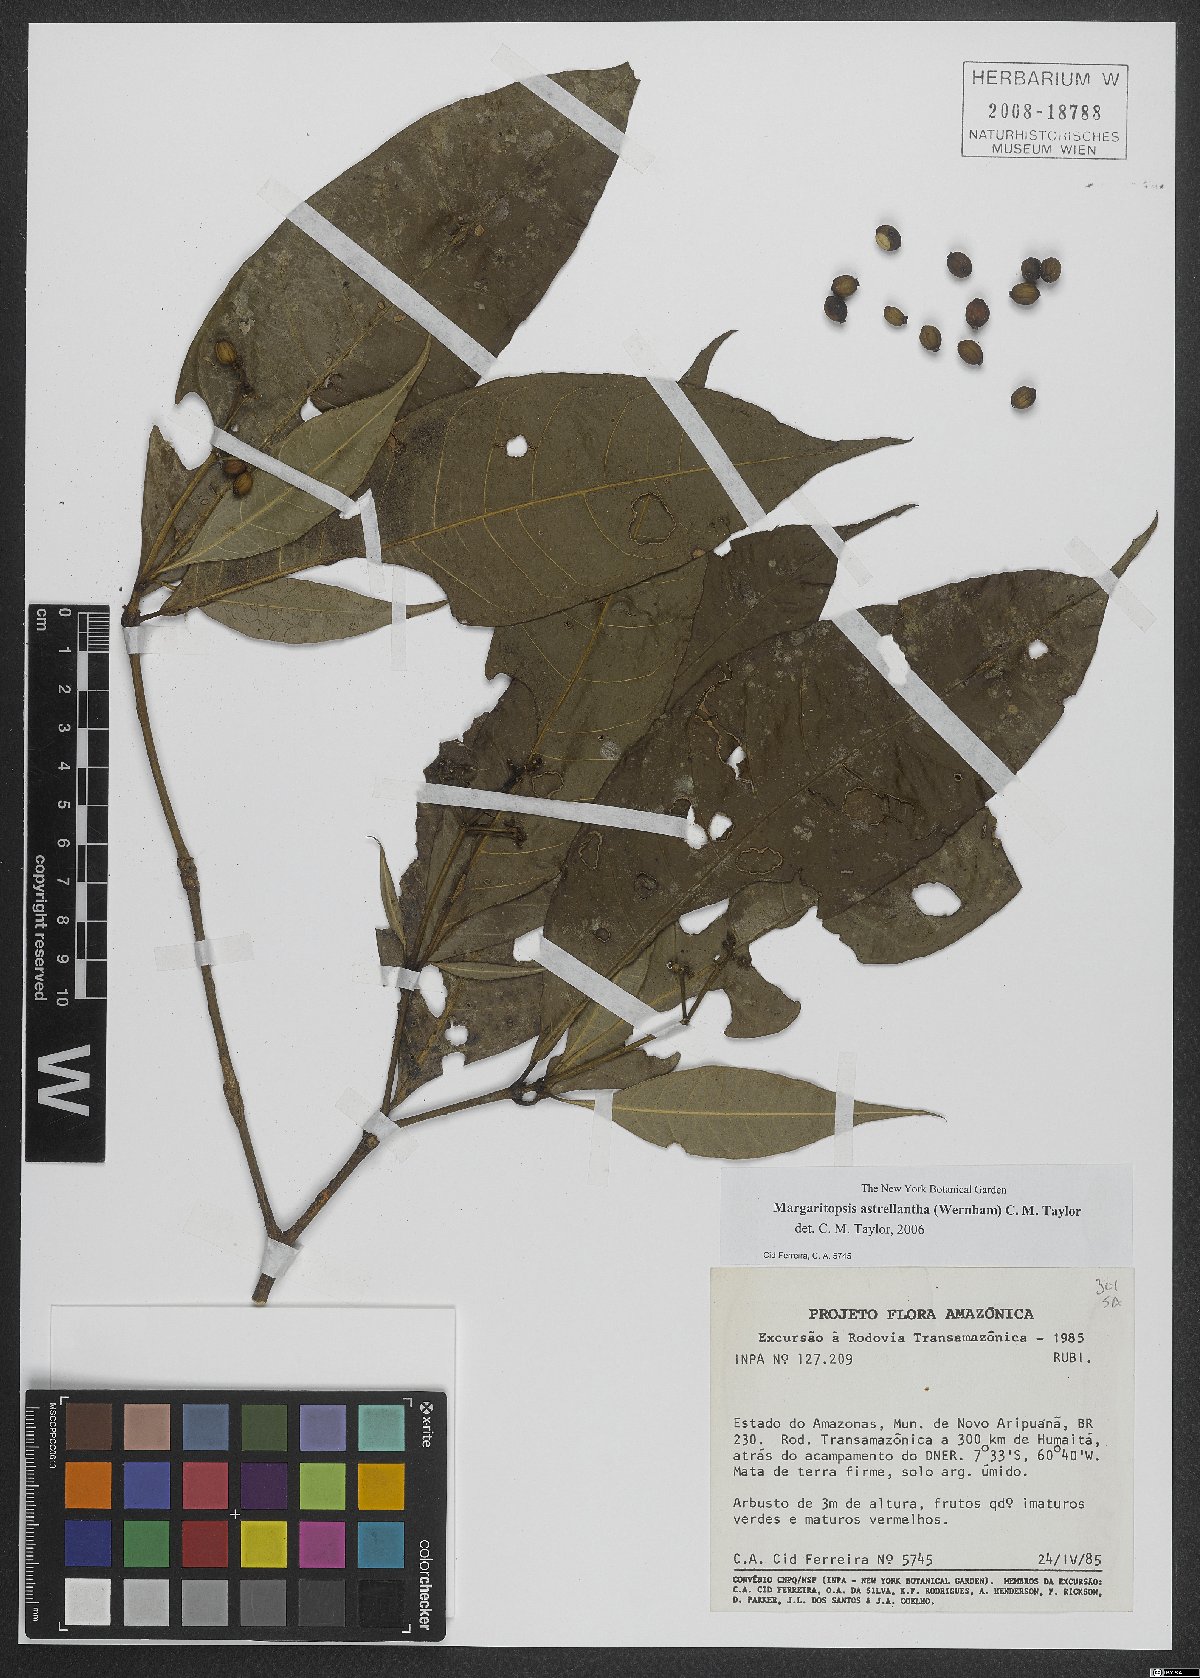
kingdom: Plantae
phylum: Tracheophyta
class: Magnoliopsida
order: Gentianales
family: Rubiaceae
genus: Eumachia
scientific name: Eumachia astrellantha
